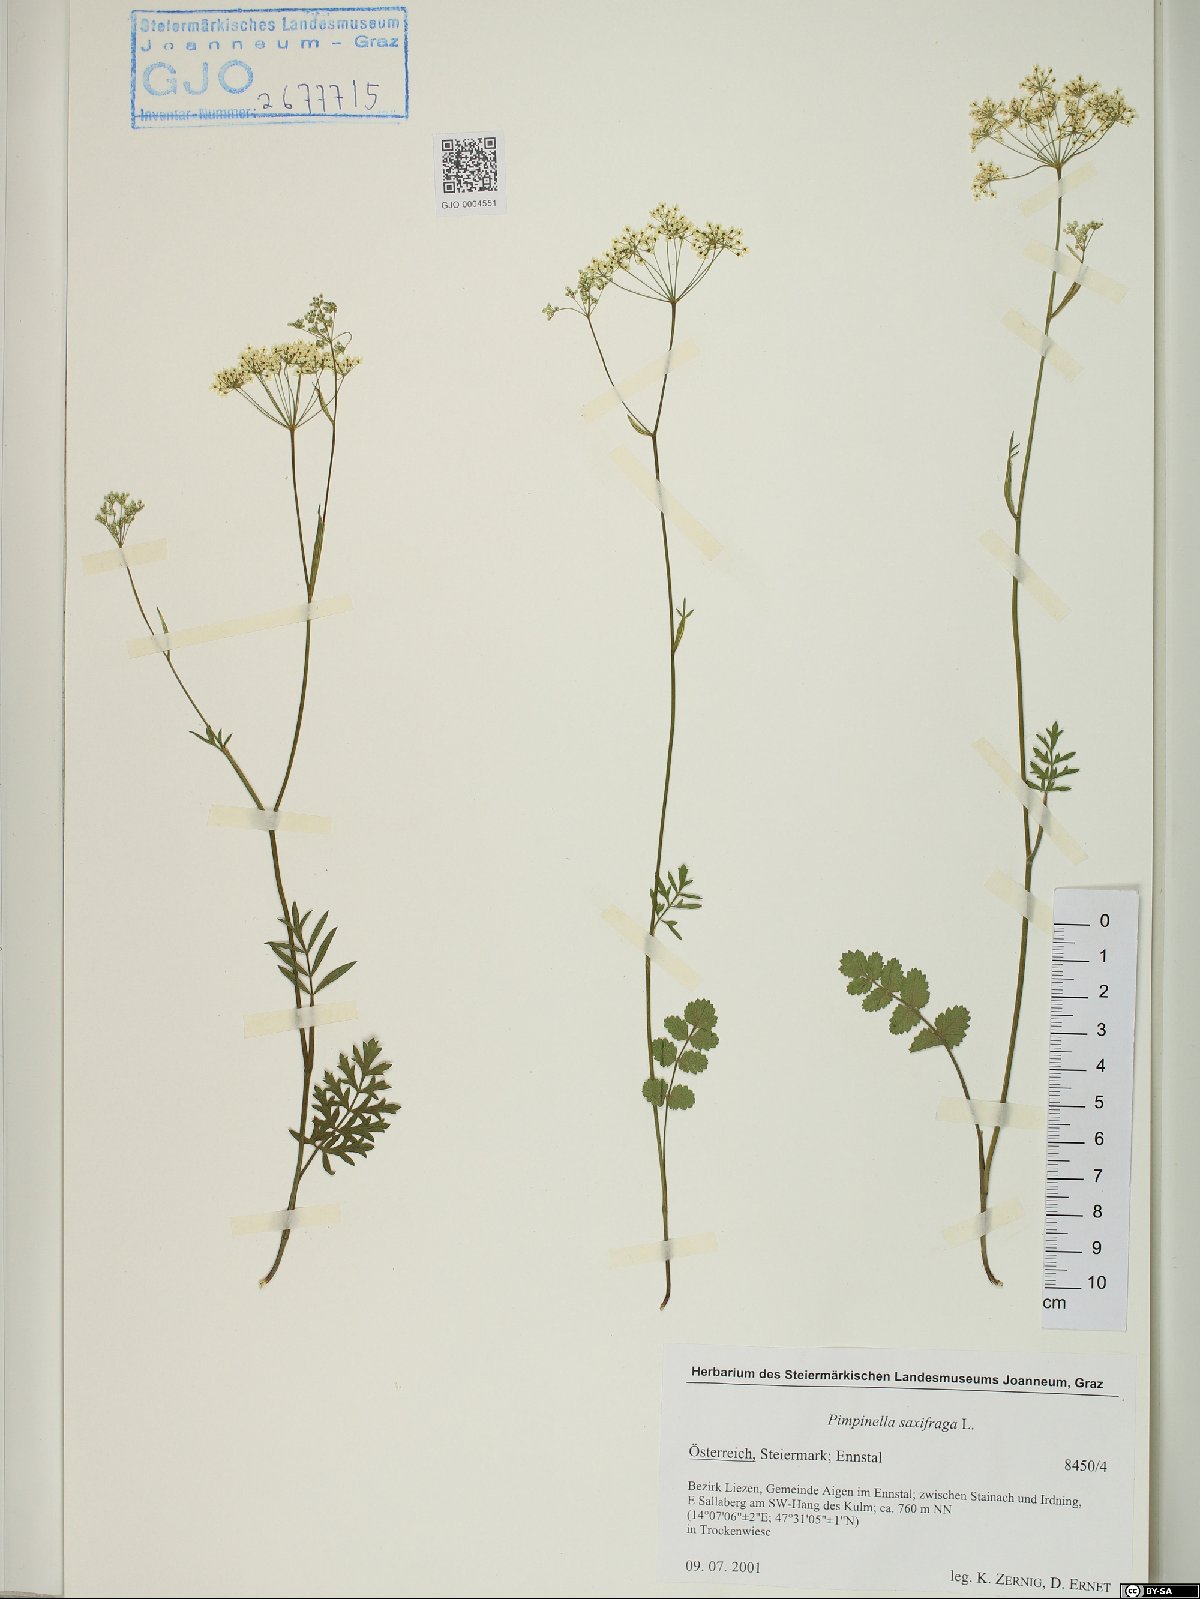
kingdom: Plantae
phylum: Tracheophyta
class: Magnoliopsida
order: Apiales
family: Apiaceae
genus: Pimpinella
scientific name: Pimpinella saxifraga
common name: Burnet-saxifrage
